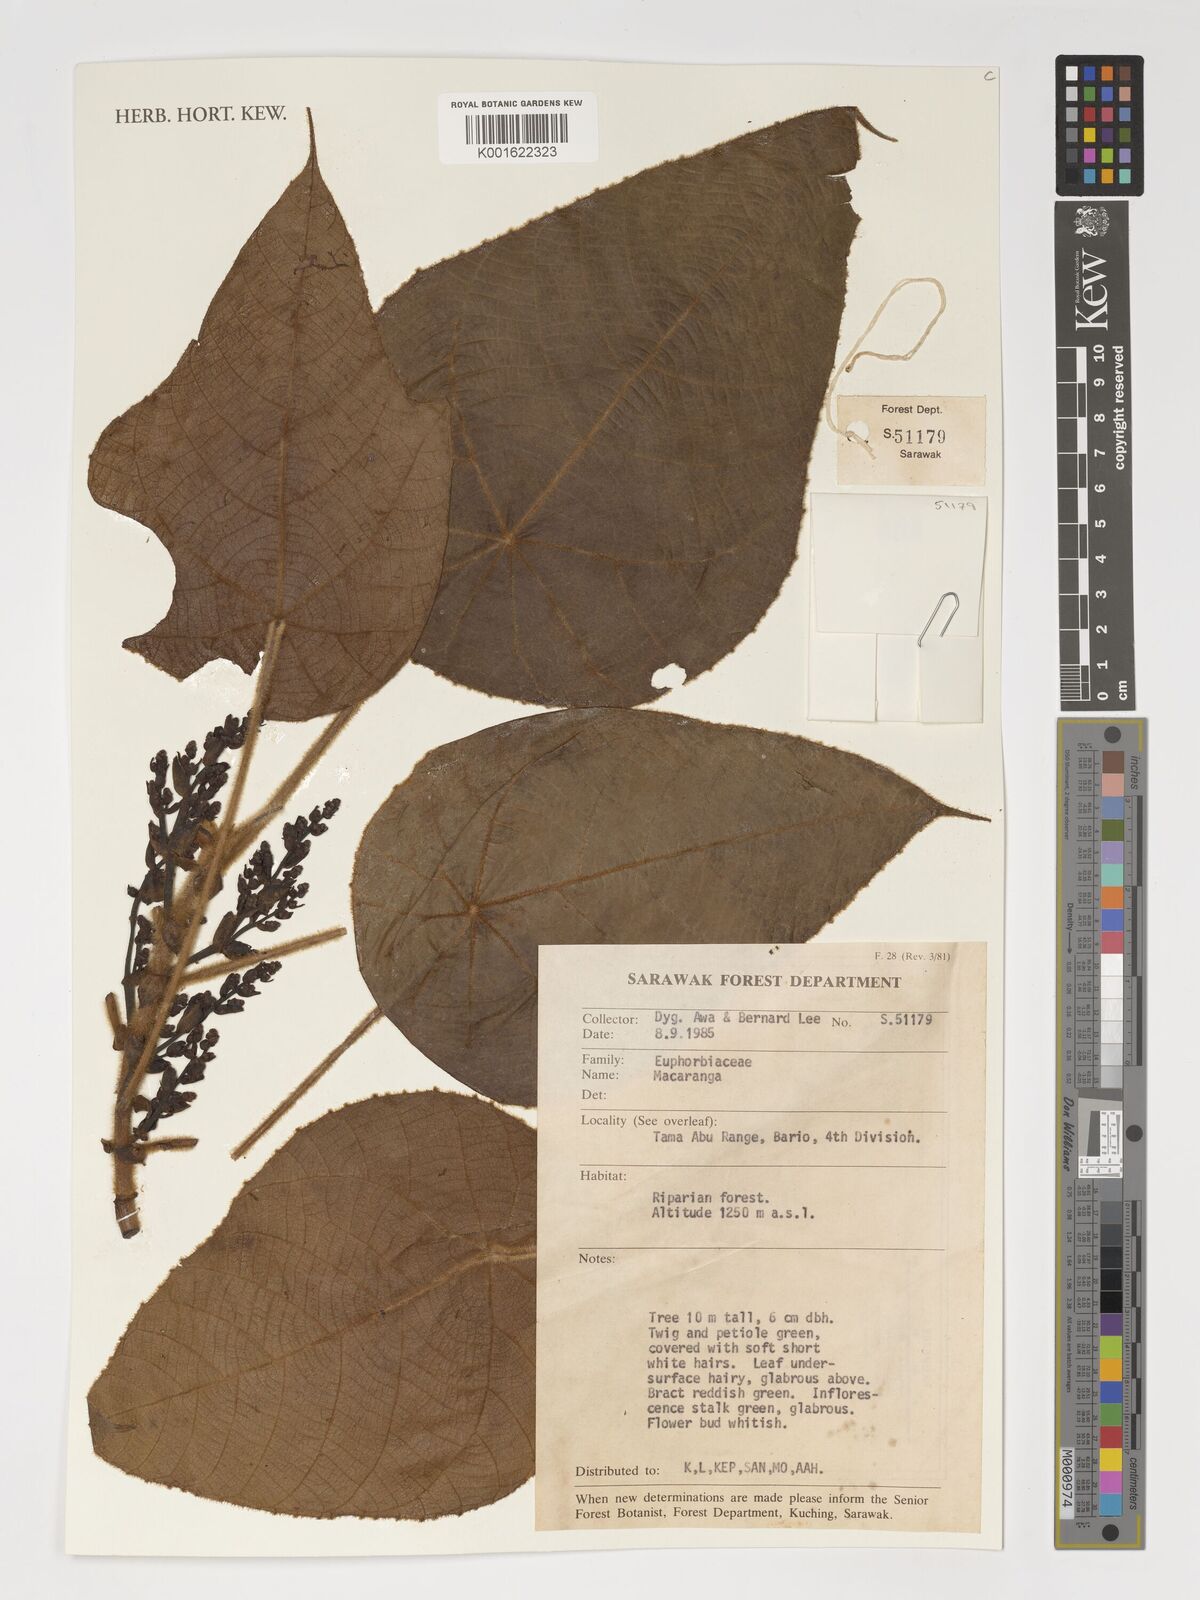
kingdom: Plantae
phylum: Tracheophyta
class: Magnoliopsida
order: Malpighiales
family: Euphorbiaceae
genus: Macaranga
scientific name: Macaranga
